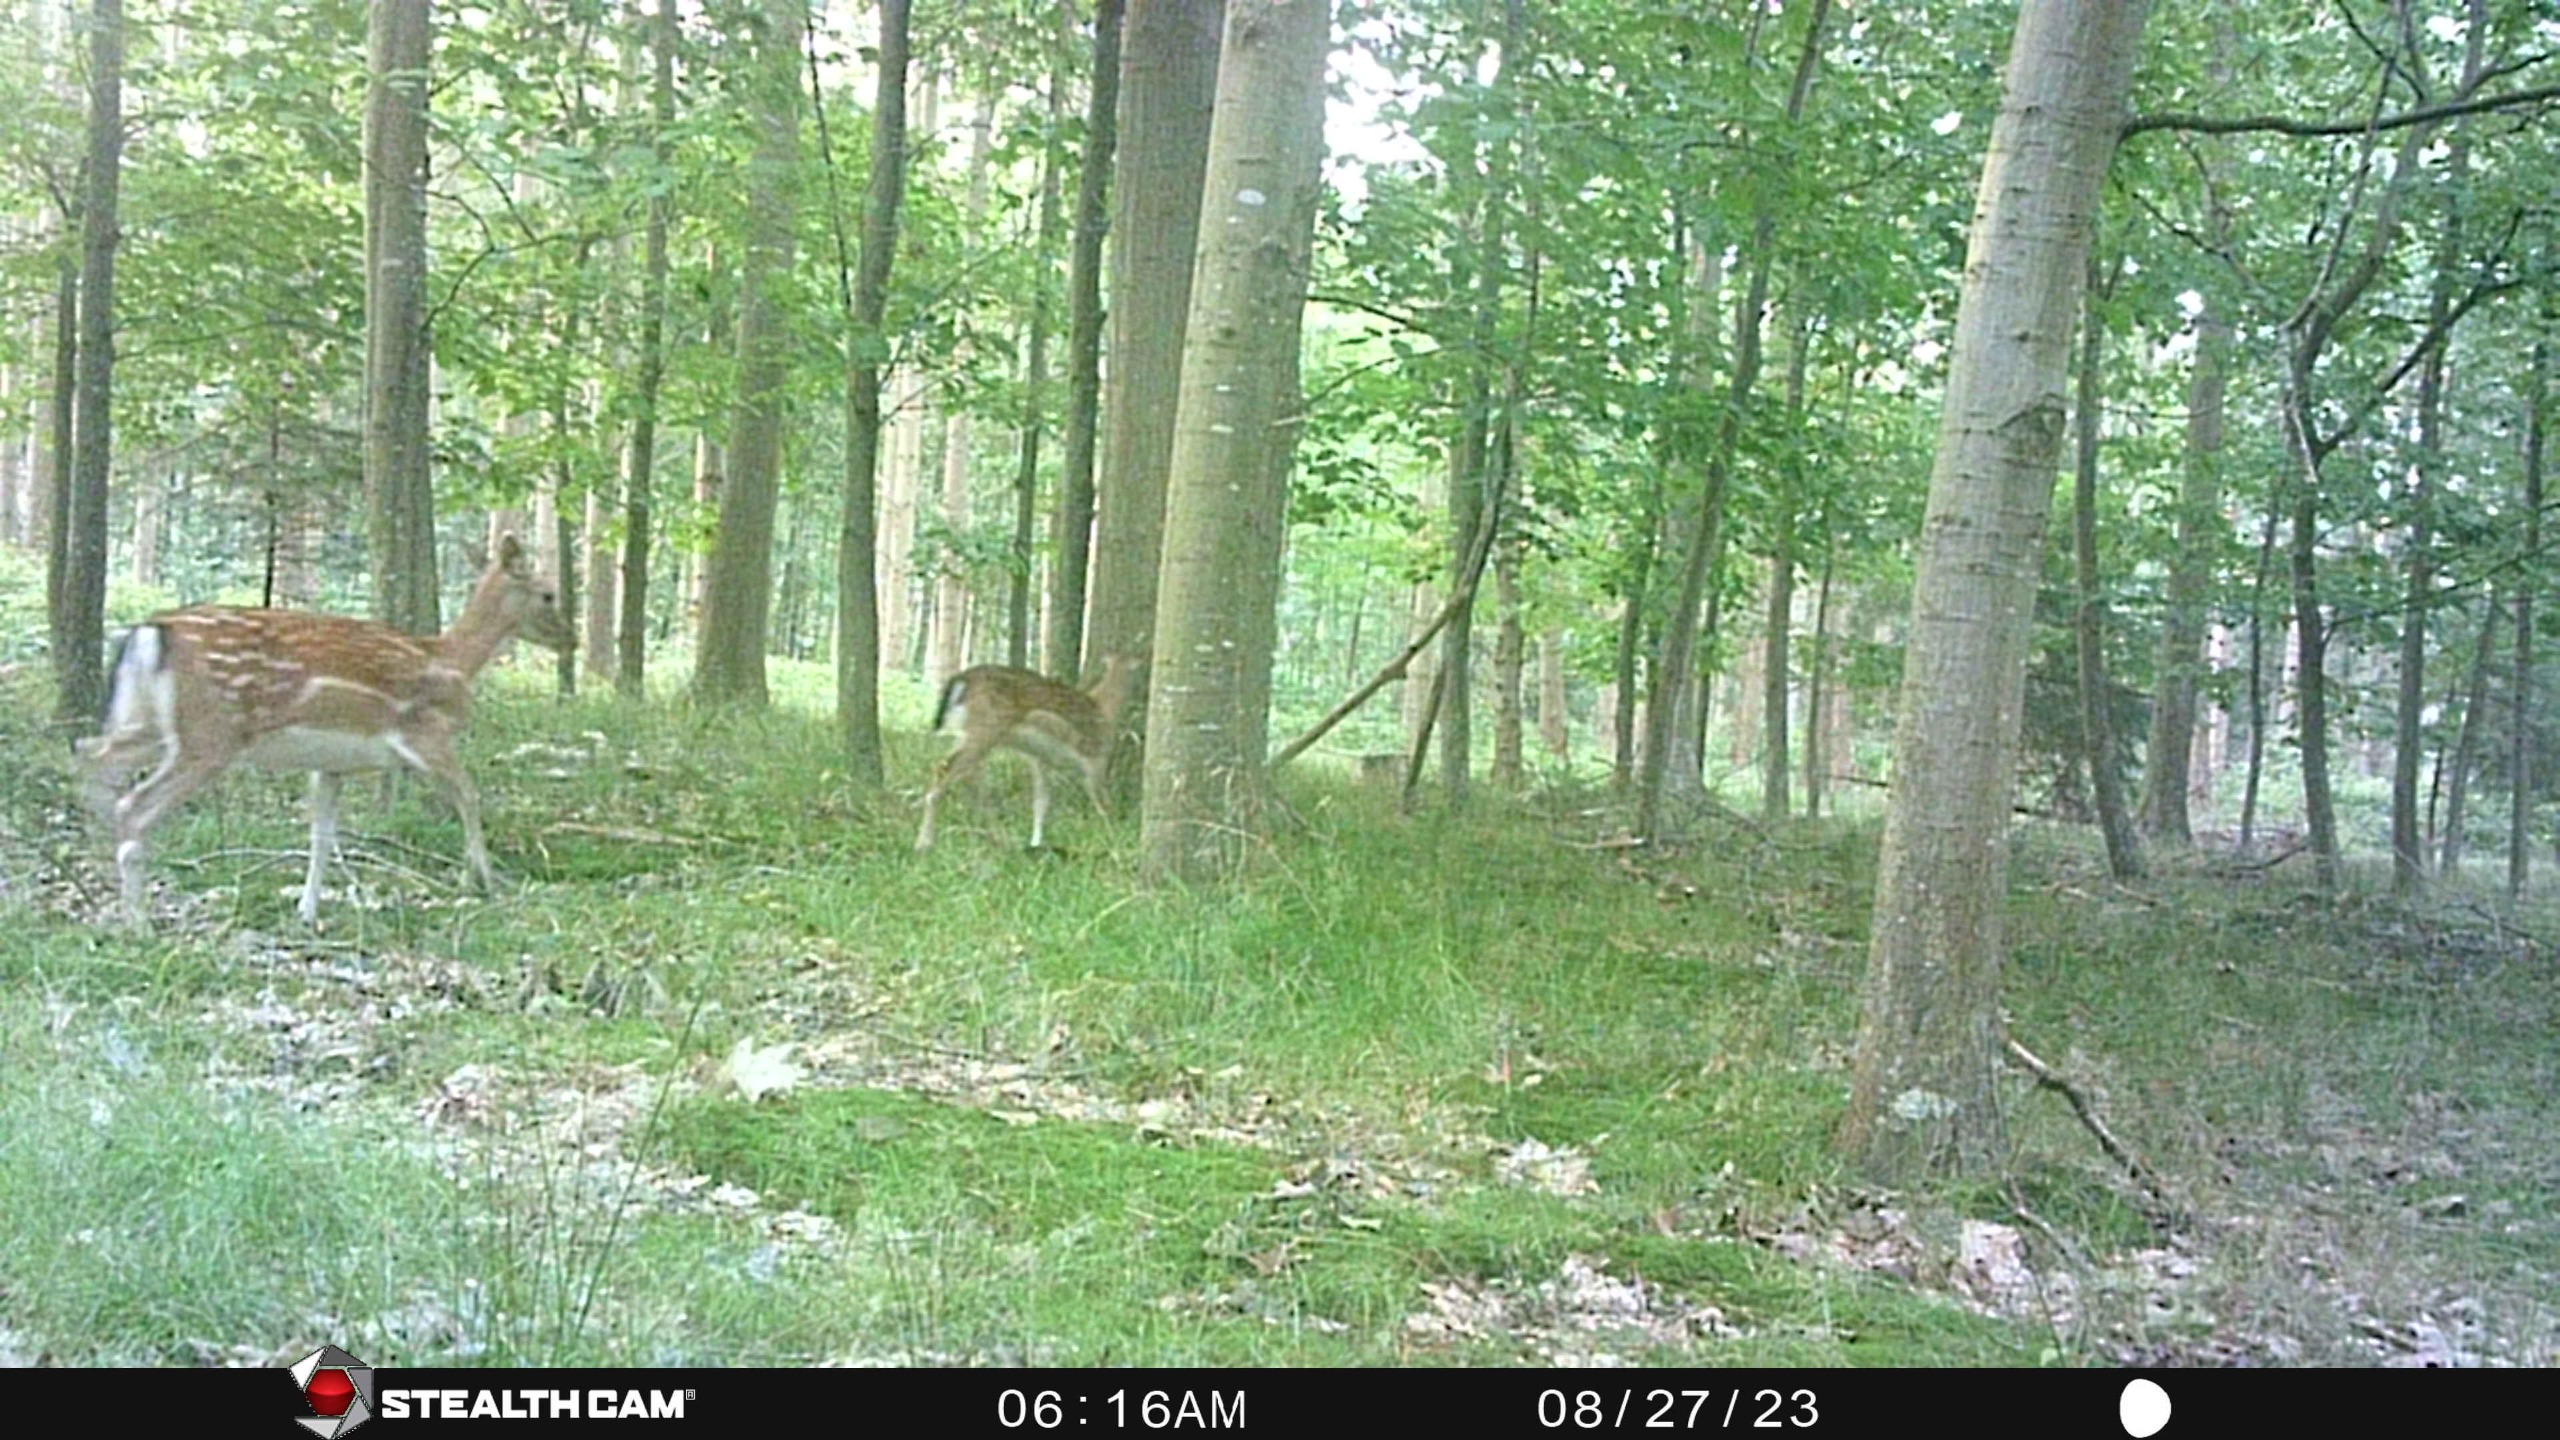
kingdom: Animalia
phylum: Chordata
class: Mammalia
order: Artiodactyla
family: Cervidae
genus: Dama
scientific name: Dama dama
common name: Dådyr
